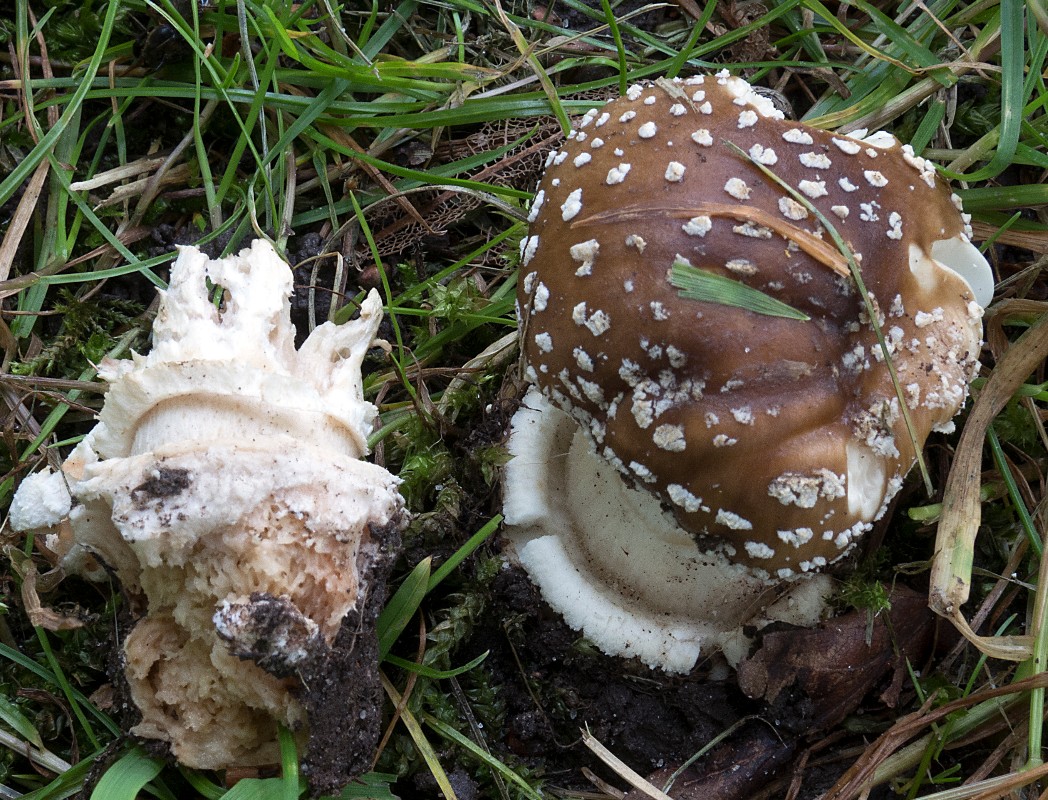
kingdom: Fungi
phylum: Basidiomycota
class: Agaricomycetes
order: Agaricales
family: Amanitaceae
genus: Amanita
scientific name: Amanita pantherina
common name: panter-fluesvamp
